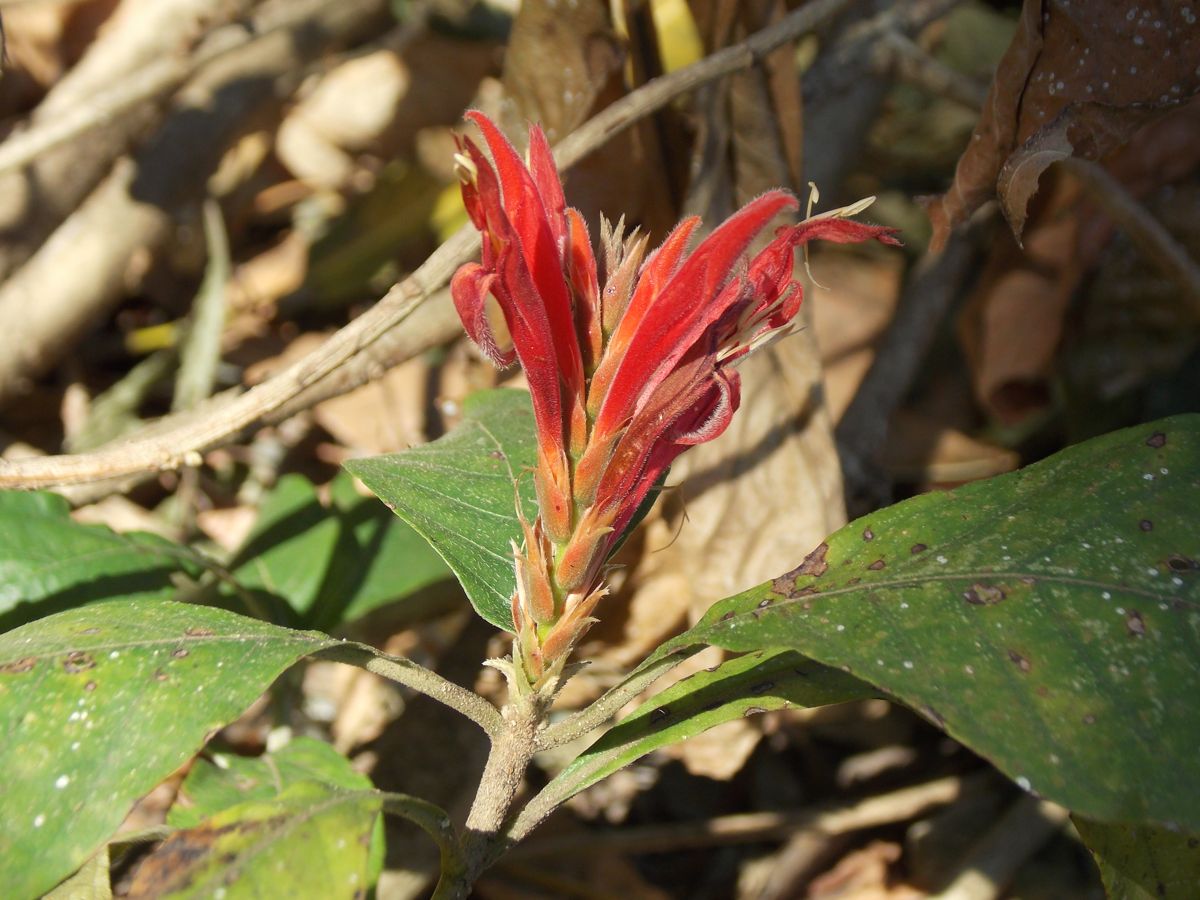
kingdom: Plantae
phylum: Tracheophyta
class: Magnoliopsida
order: Lamiales
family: Acanthaceae
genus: Aphelandra
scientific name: Aphelandra scabra
